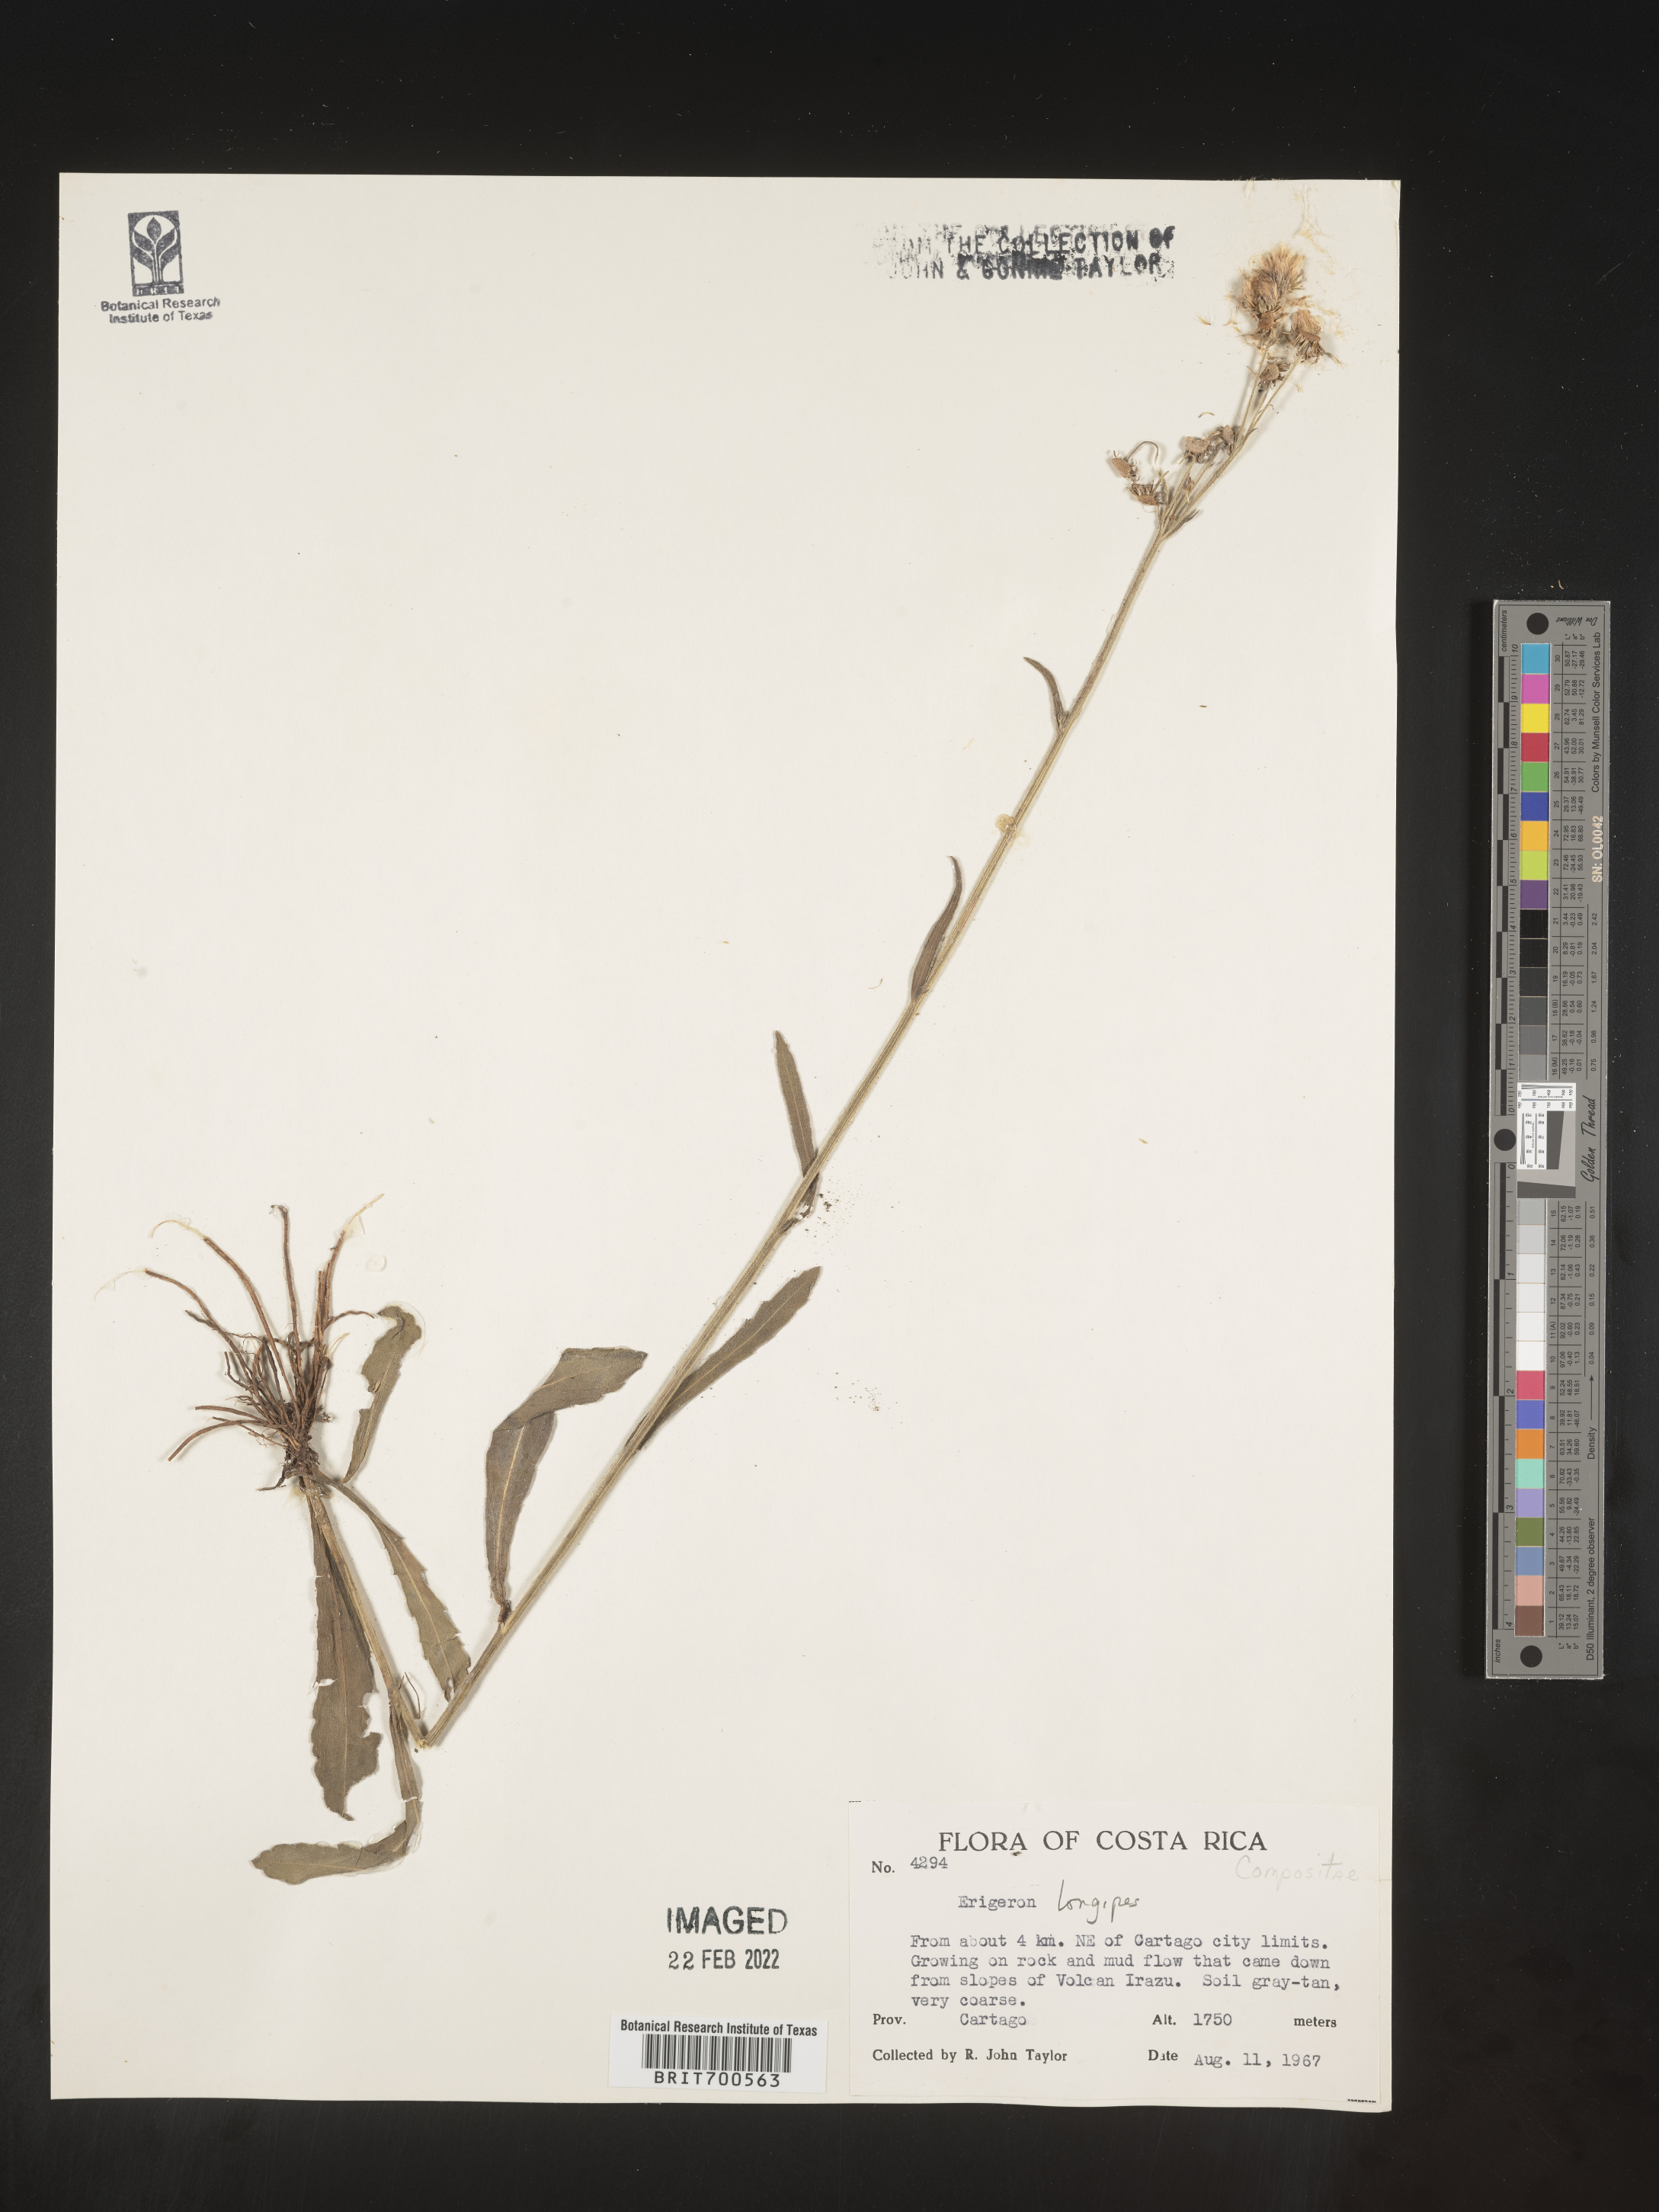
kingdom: Plantae
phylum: Tracheophyta
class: Magnoliopsida
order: Asterales
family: Asteraceae
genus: Erigeron
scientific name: Erigeron longipes
